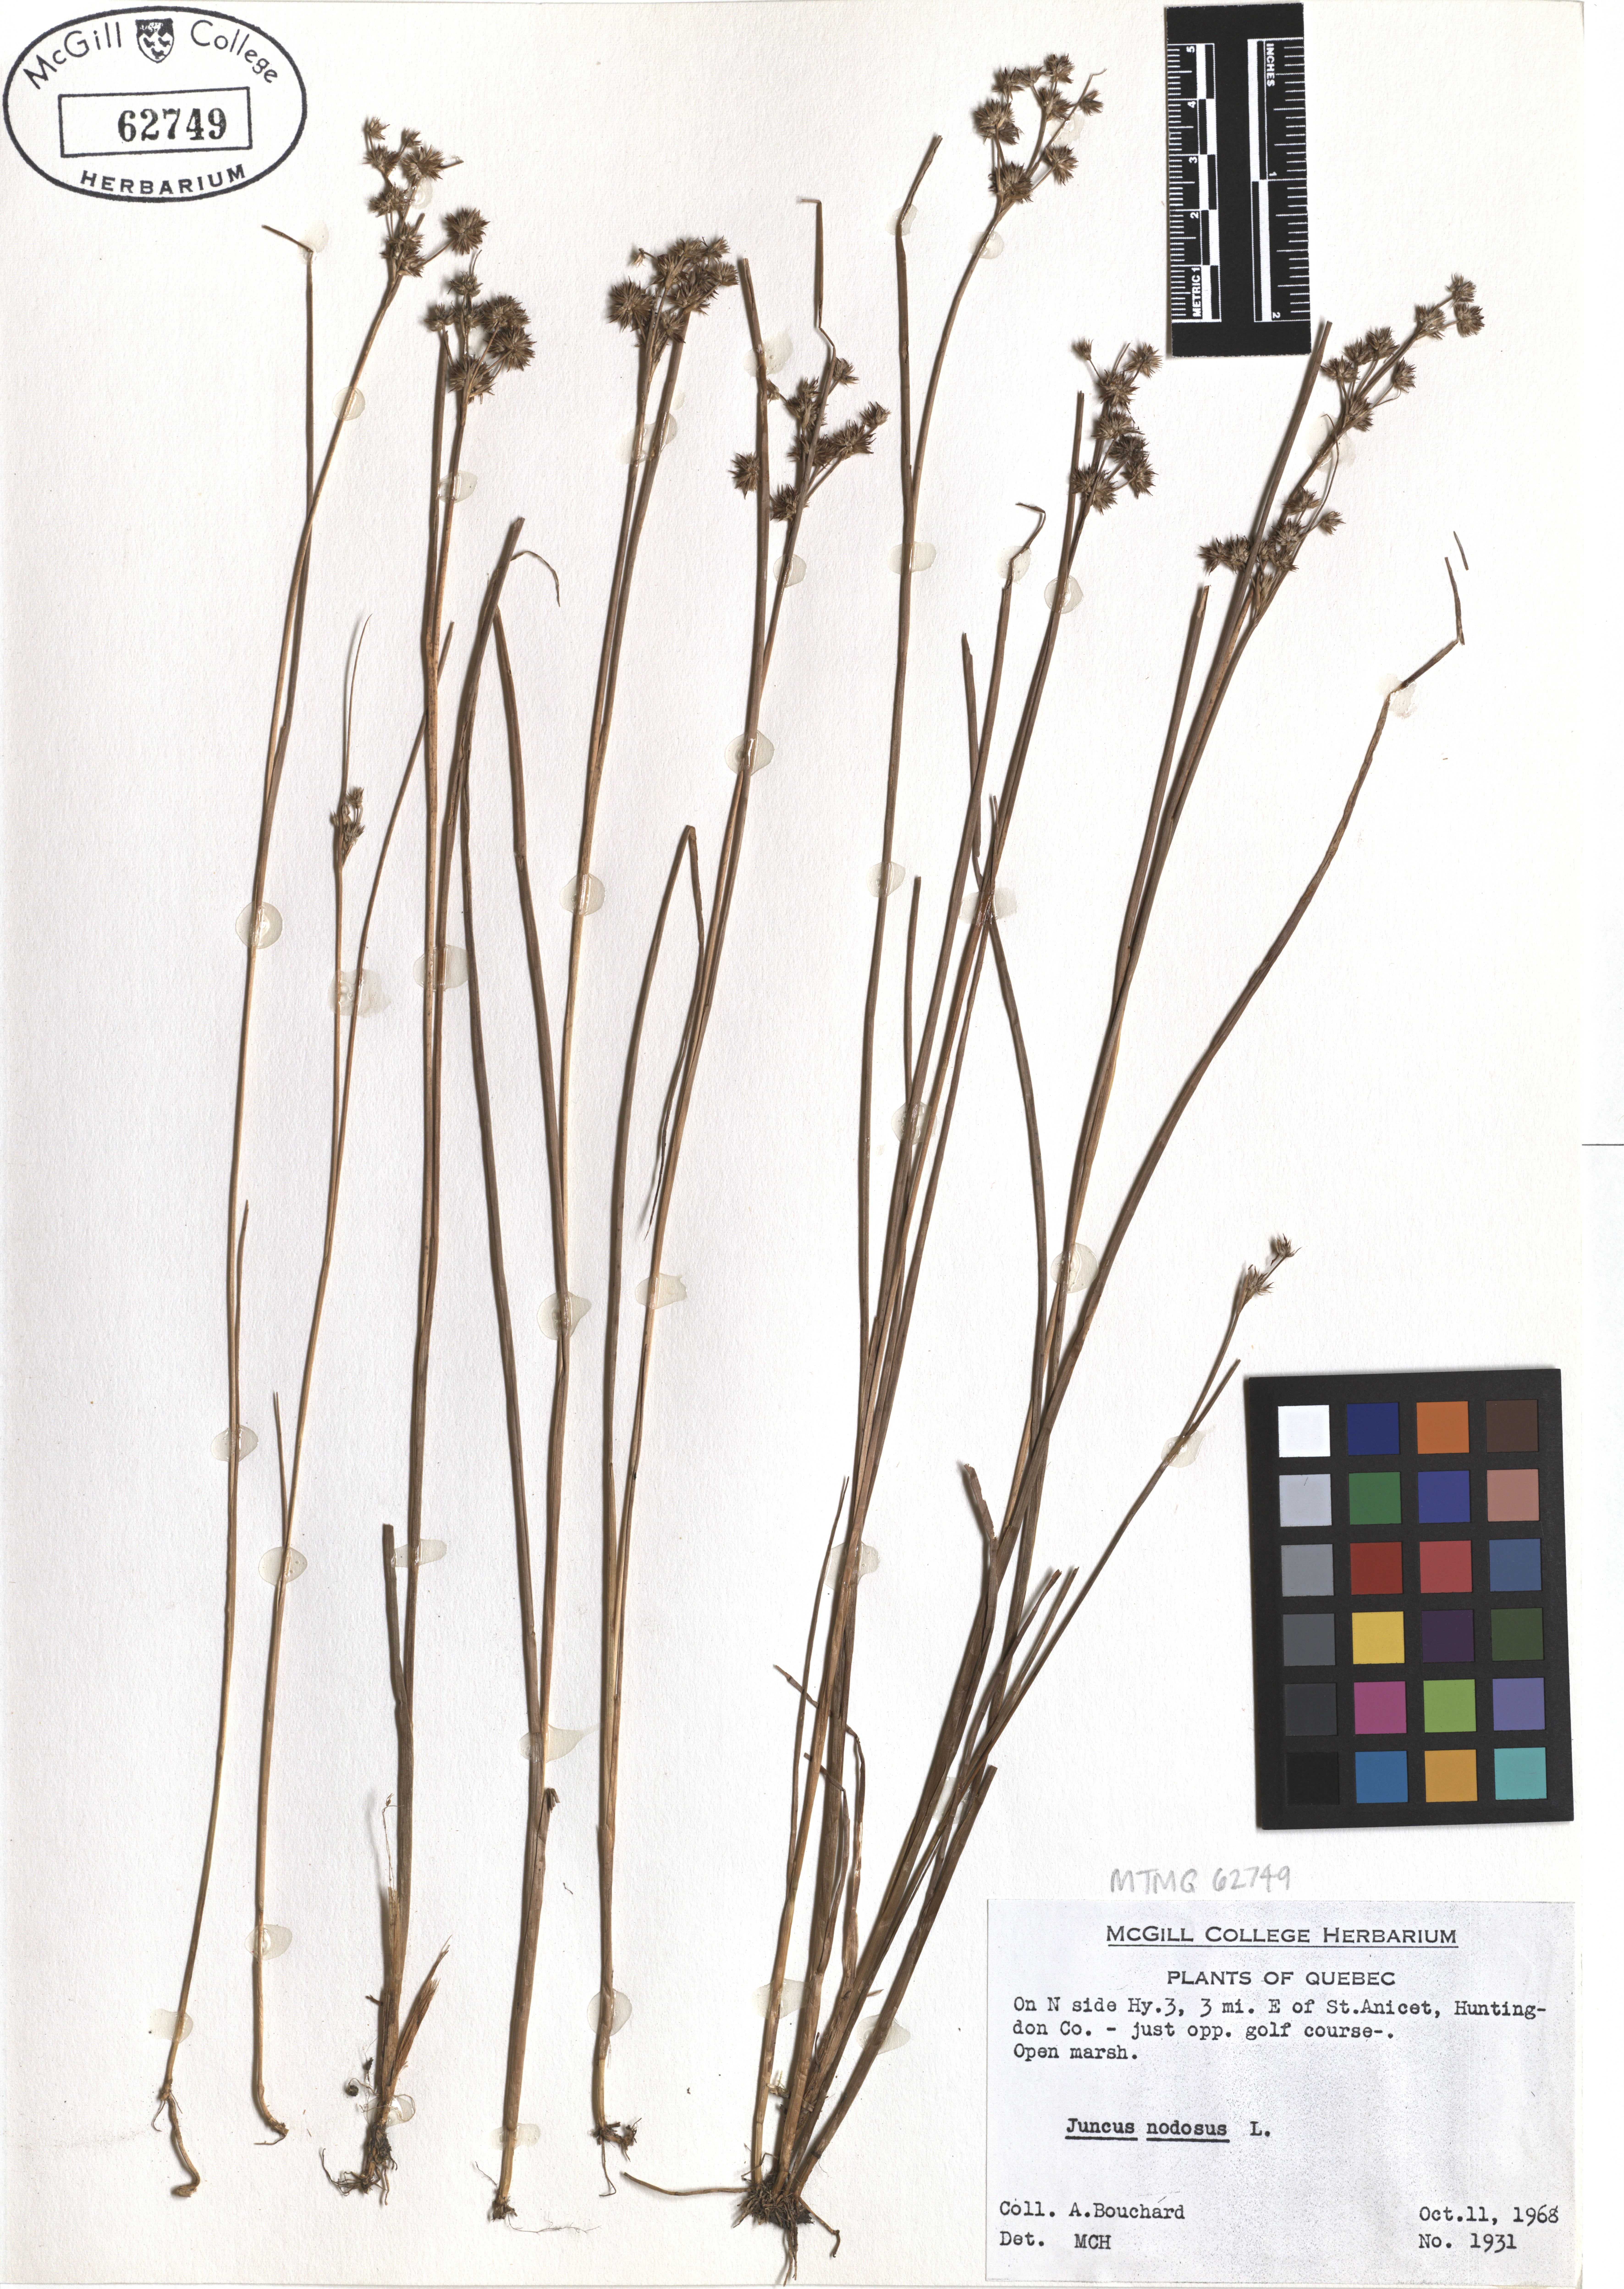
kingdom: Plantae
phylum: Tracheophyta
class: Liliopsida
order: Poales
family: Juncaceae
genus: Juncus
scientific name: Juncus nodosus
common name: Knotted rush
